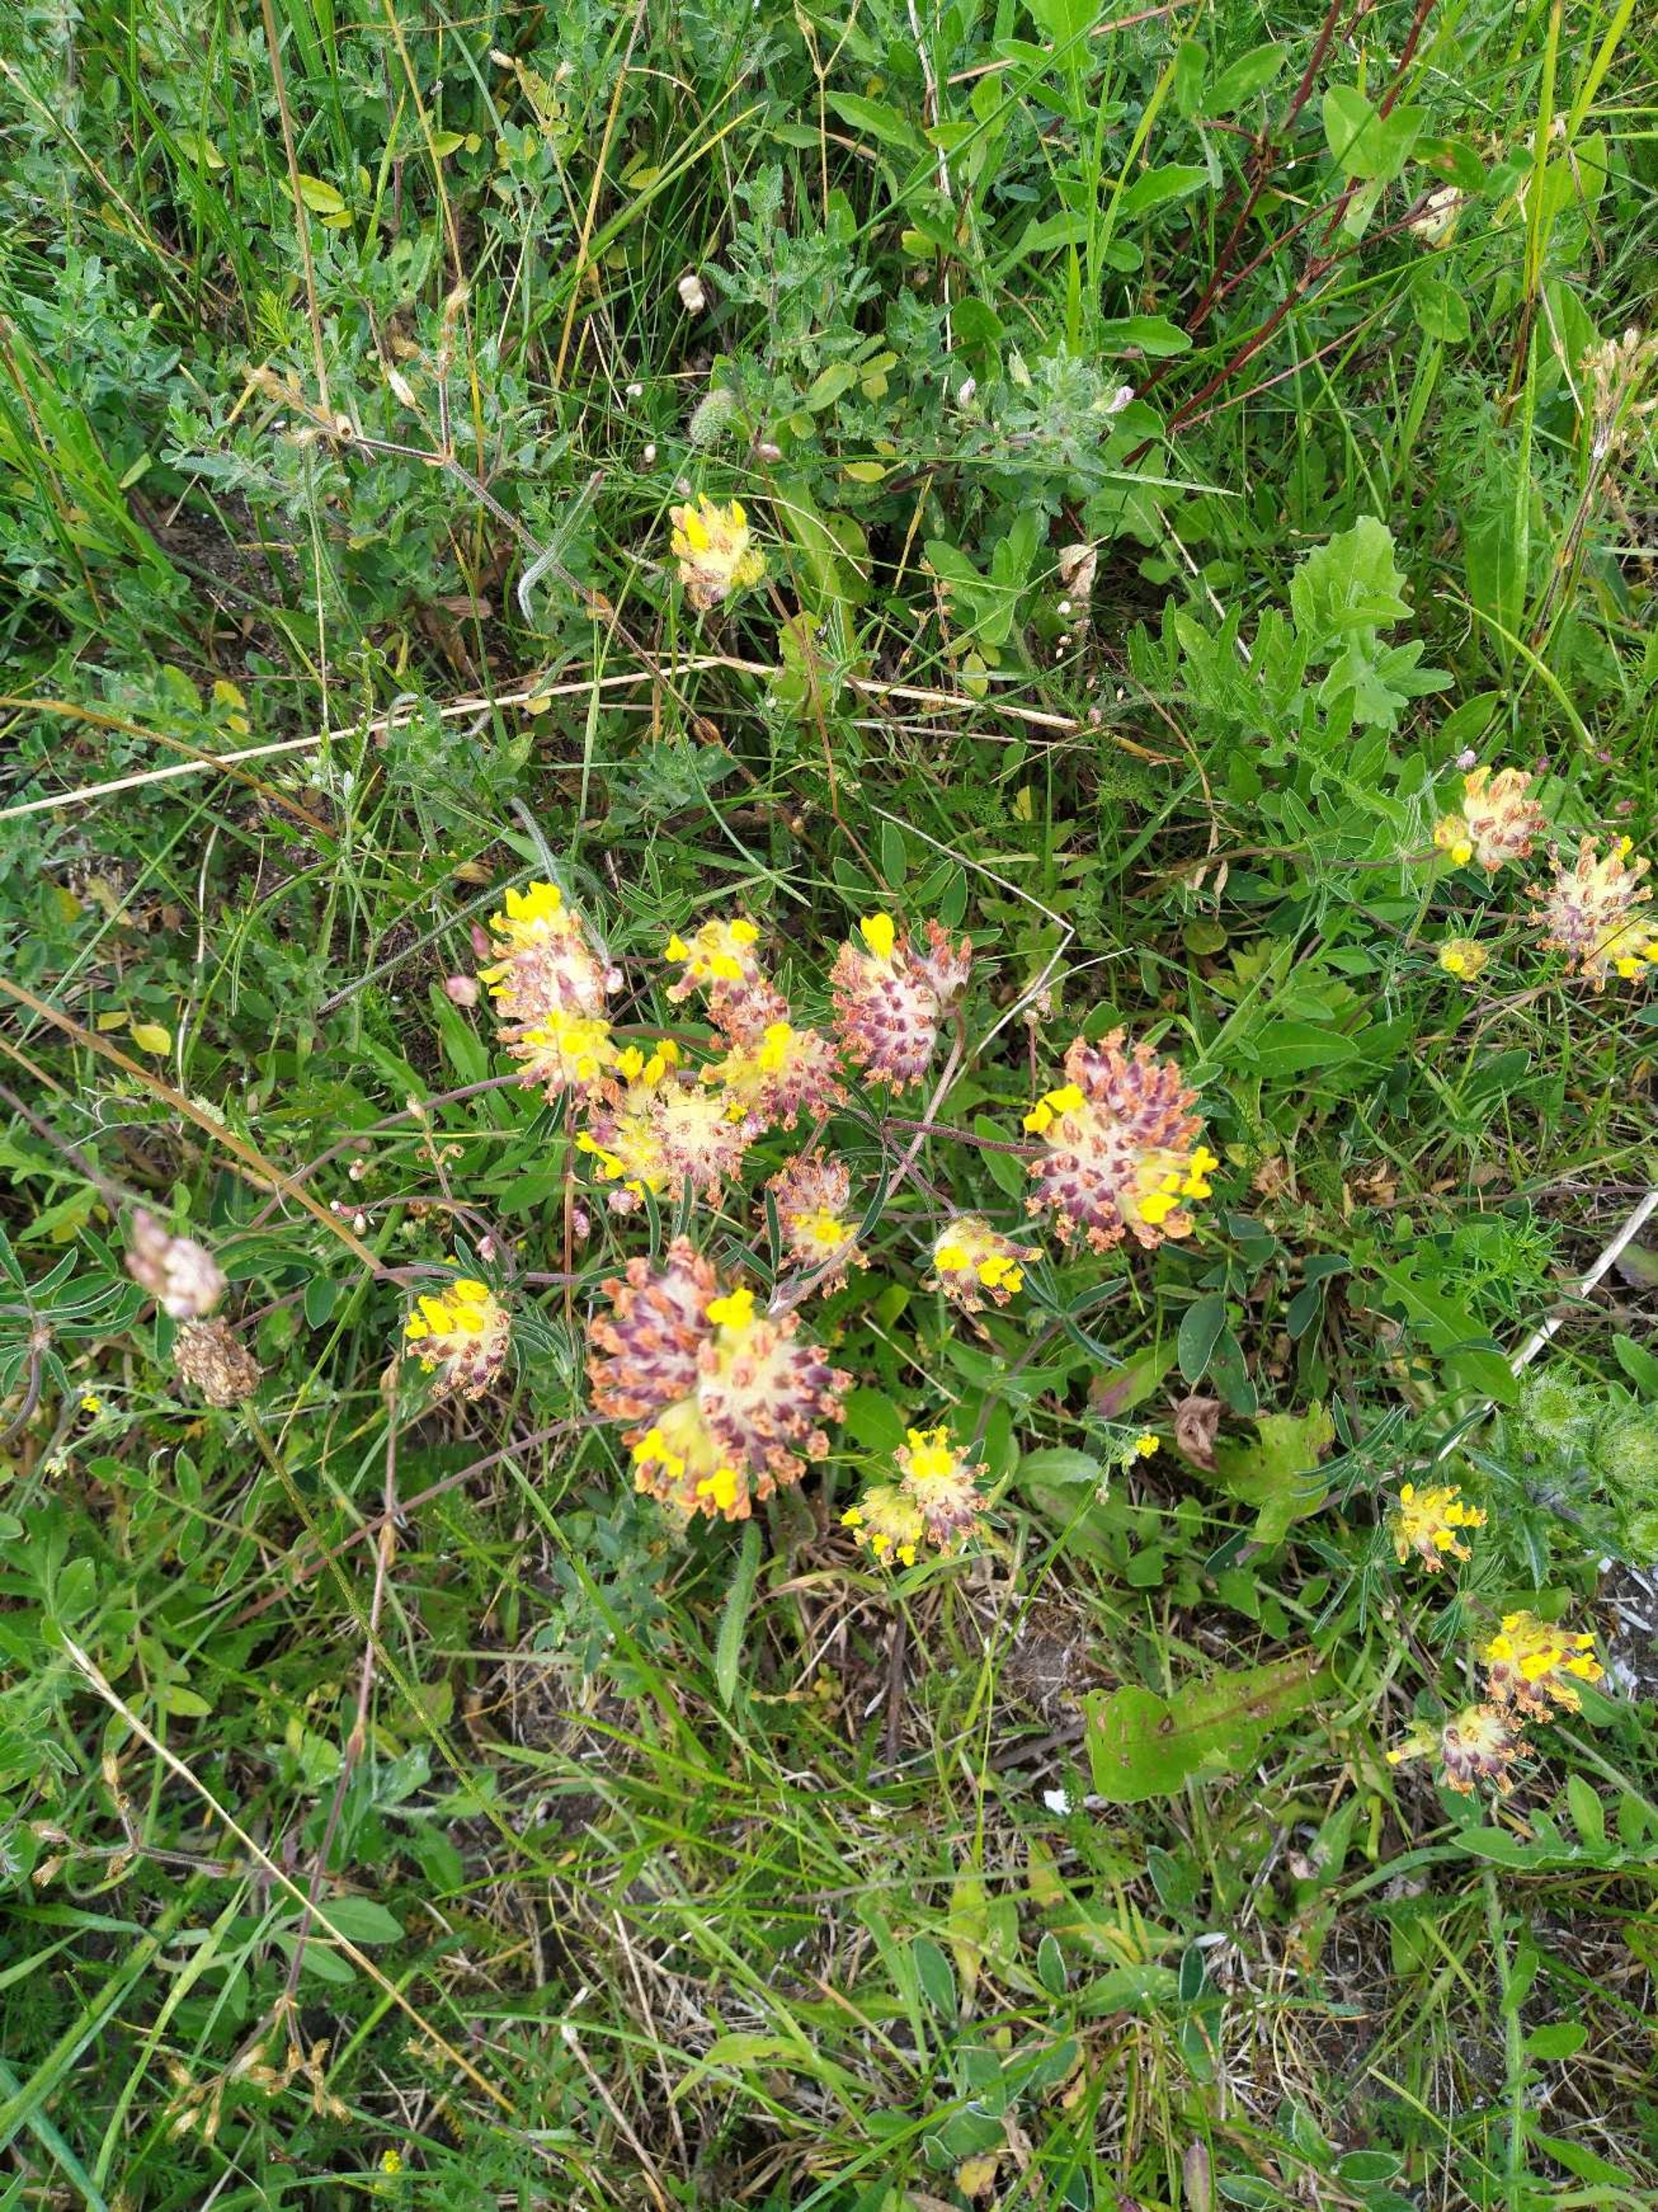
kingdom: Plantae
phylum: Tracheophyta
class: Magnoliopsida
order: Fabales
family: Fabaceae
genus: Anthyllis
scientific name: Anthyllis vulneraria
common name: Rundbælg
